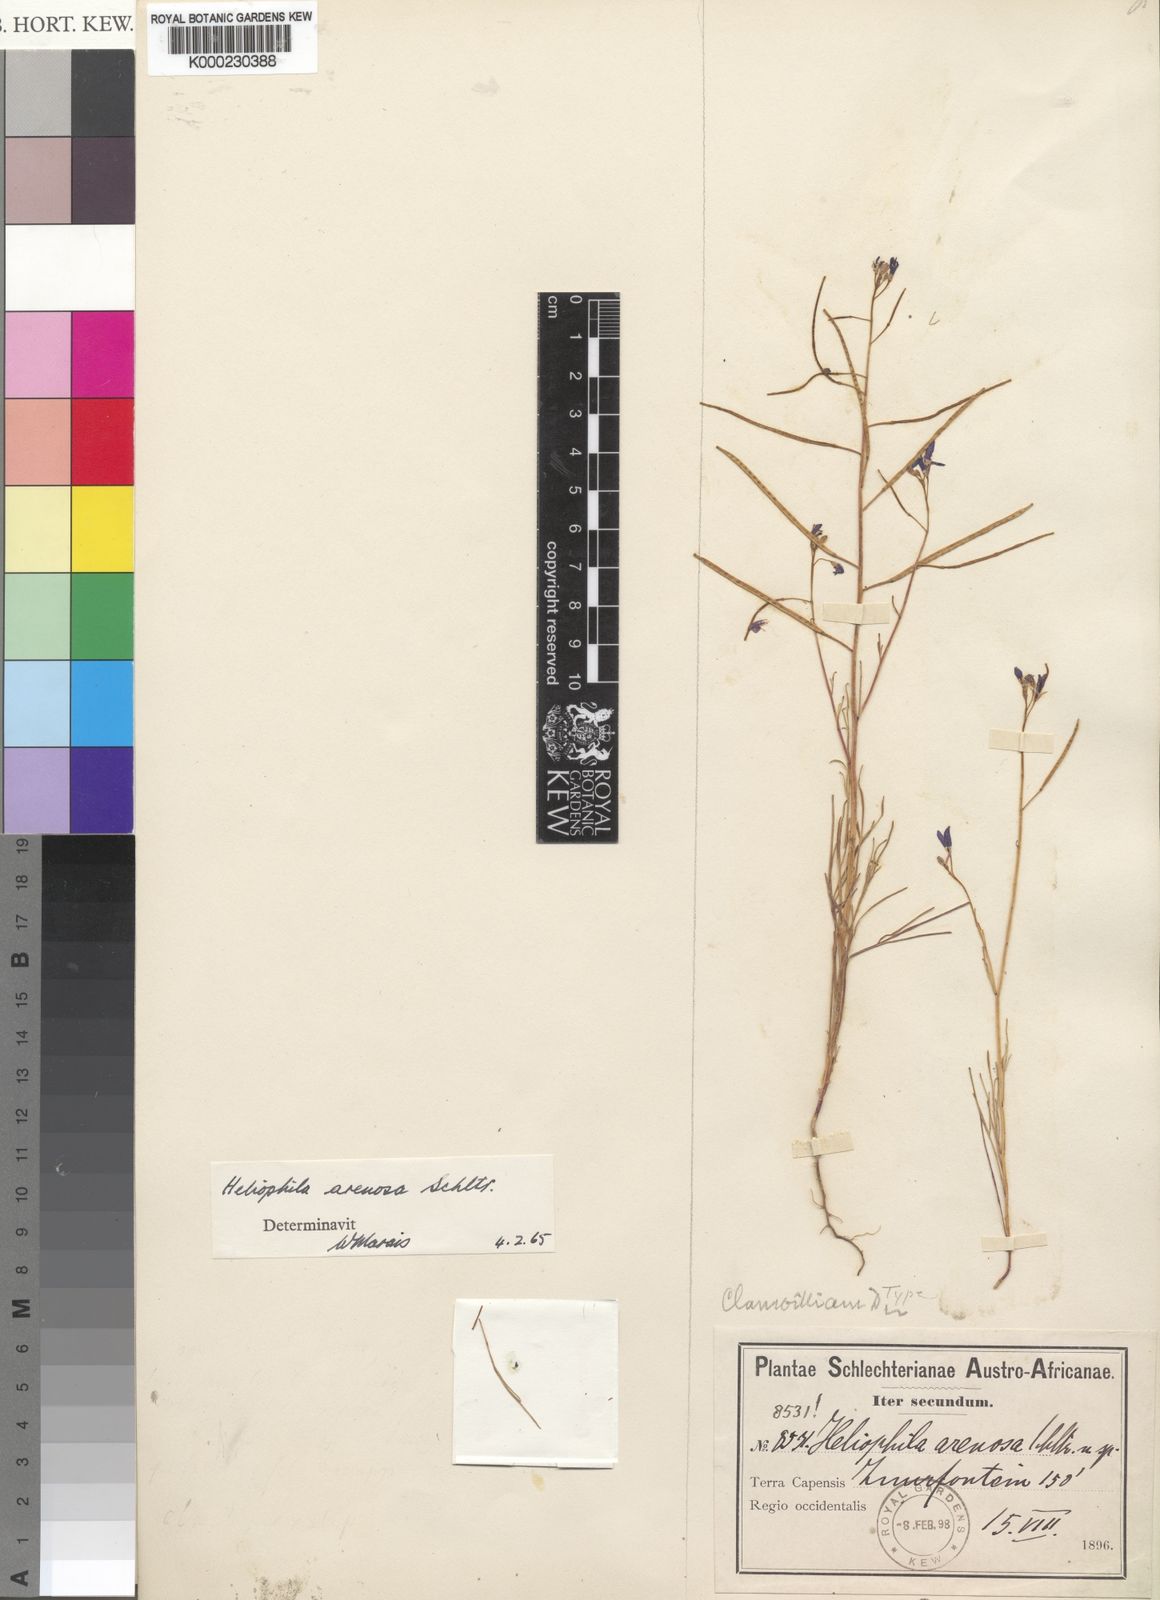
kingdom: Plantae
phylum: Tracheophyta
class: Magnoliopsida
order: Brassicales
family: Brassicaceae
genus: Heliophila
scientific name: Heliophila arenosa
